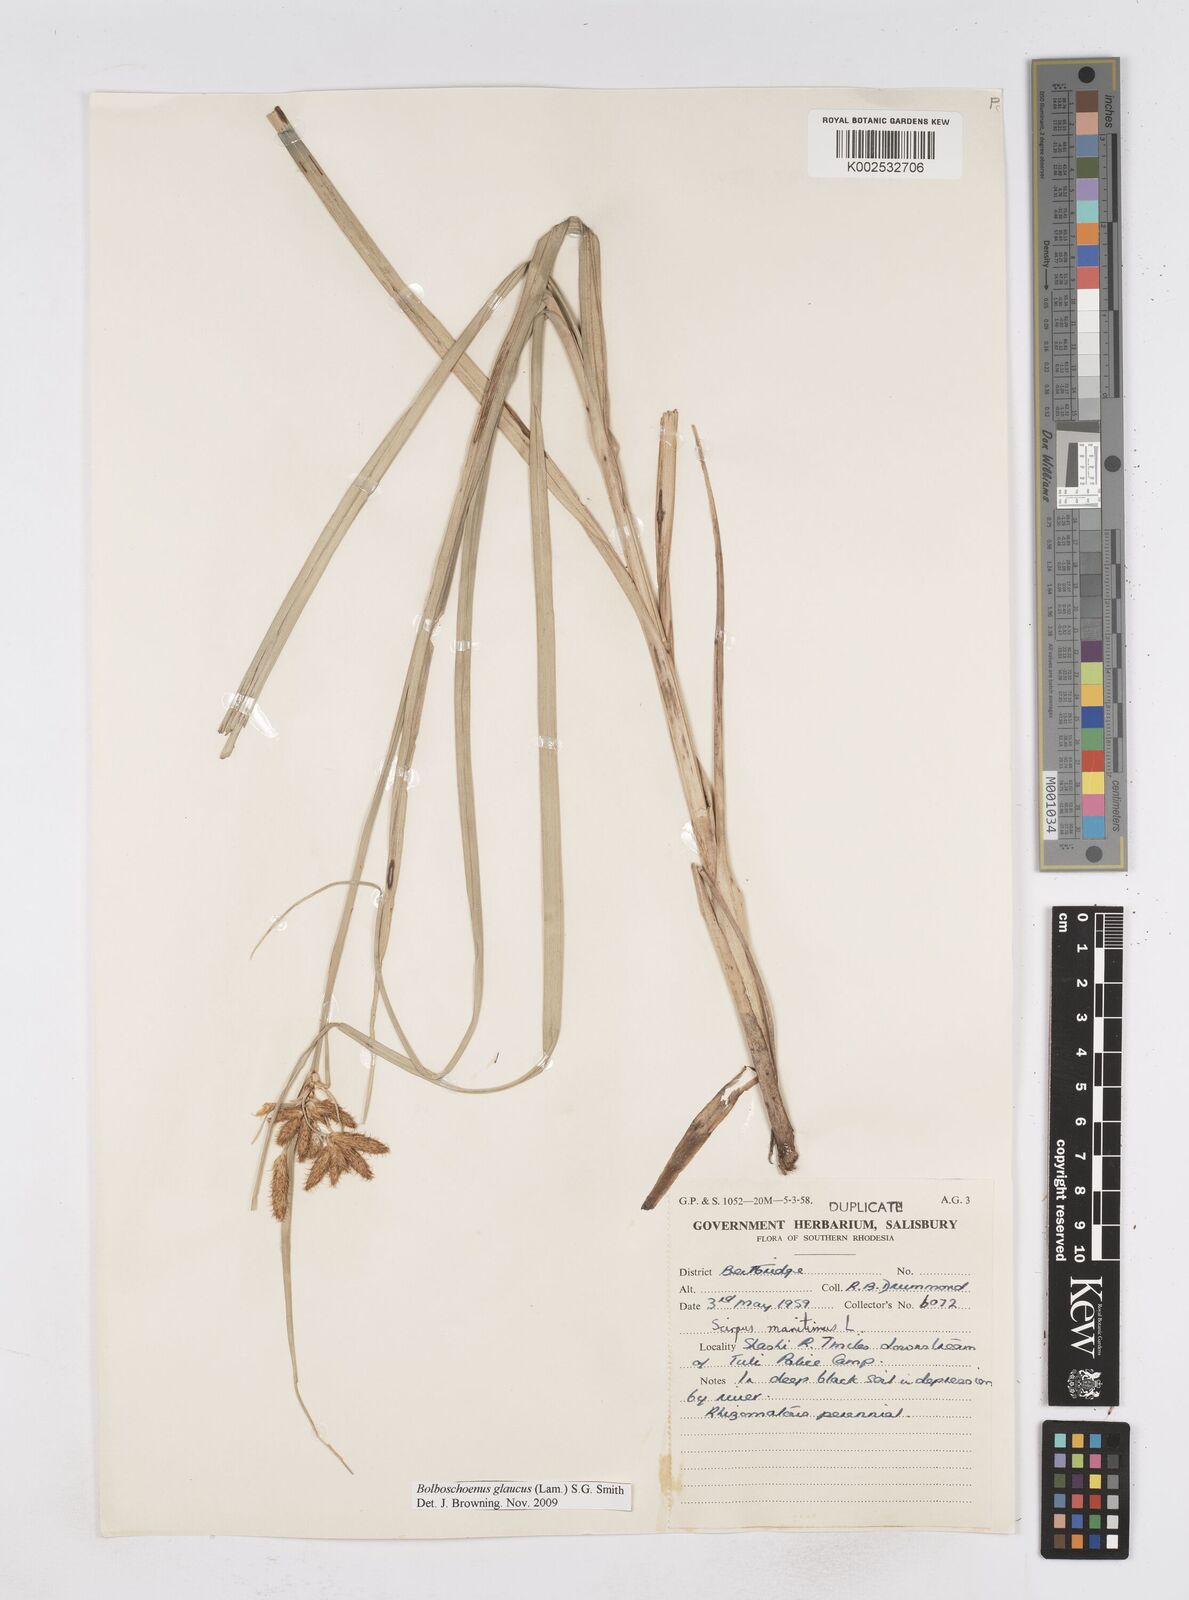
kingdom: Plantae
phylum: Tracheophyta
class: Liliopsida
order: Poales
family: Cyperaceae
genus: Bolboschoenus
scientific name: Bolboschoenus glaucus
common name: Tuberous bulrush
